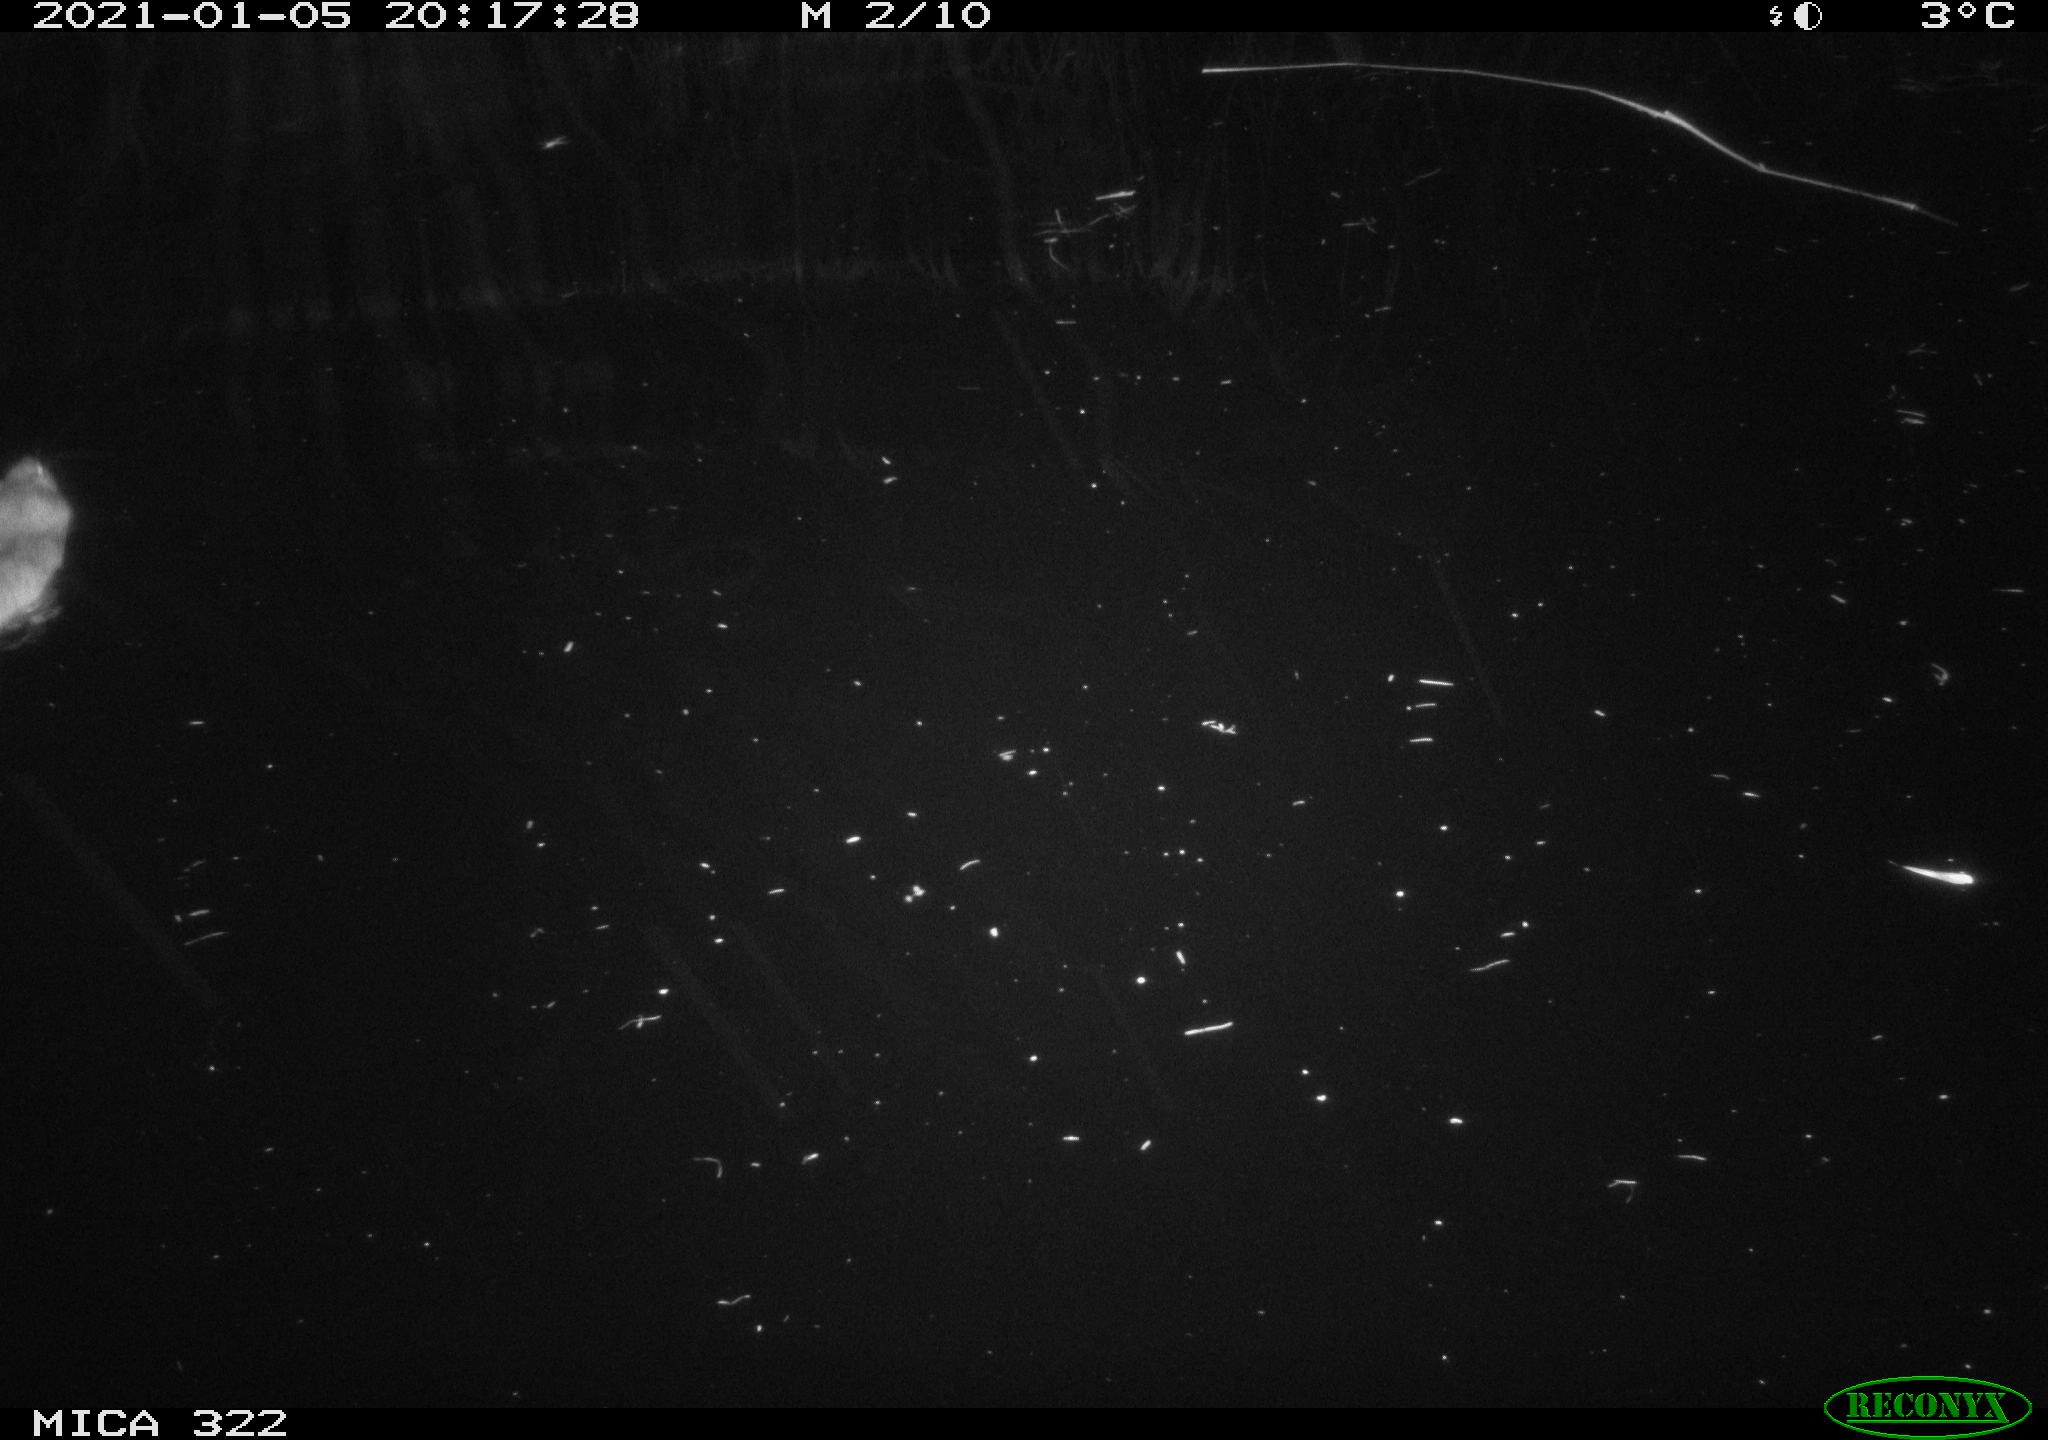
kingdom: Animalia
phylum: Chordata
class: Mammalia
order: Rodentia
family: Muridae
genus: Rattus
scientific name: Rattus norvegicus
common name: Brown rat
